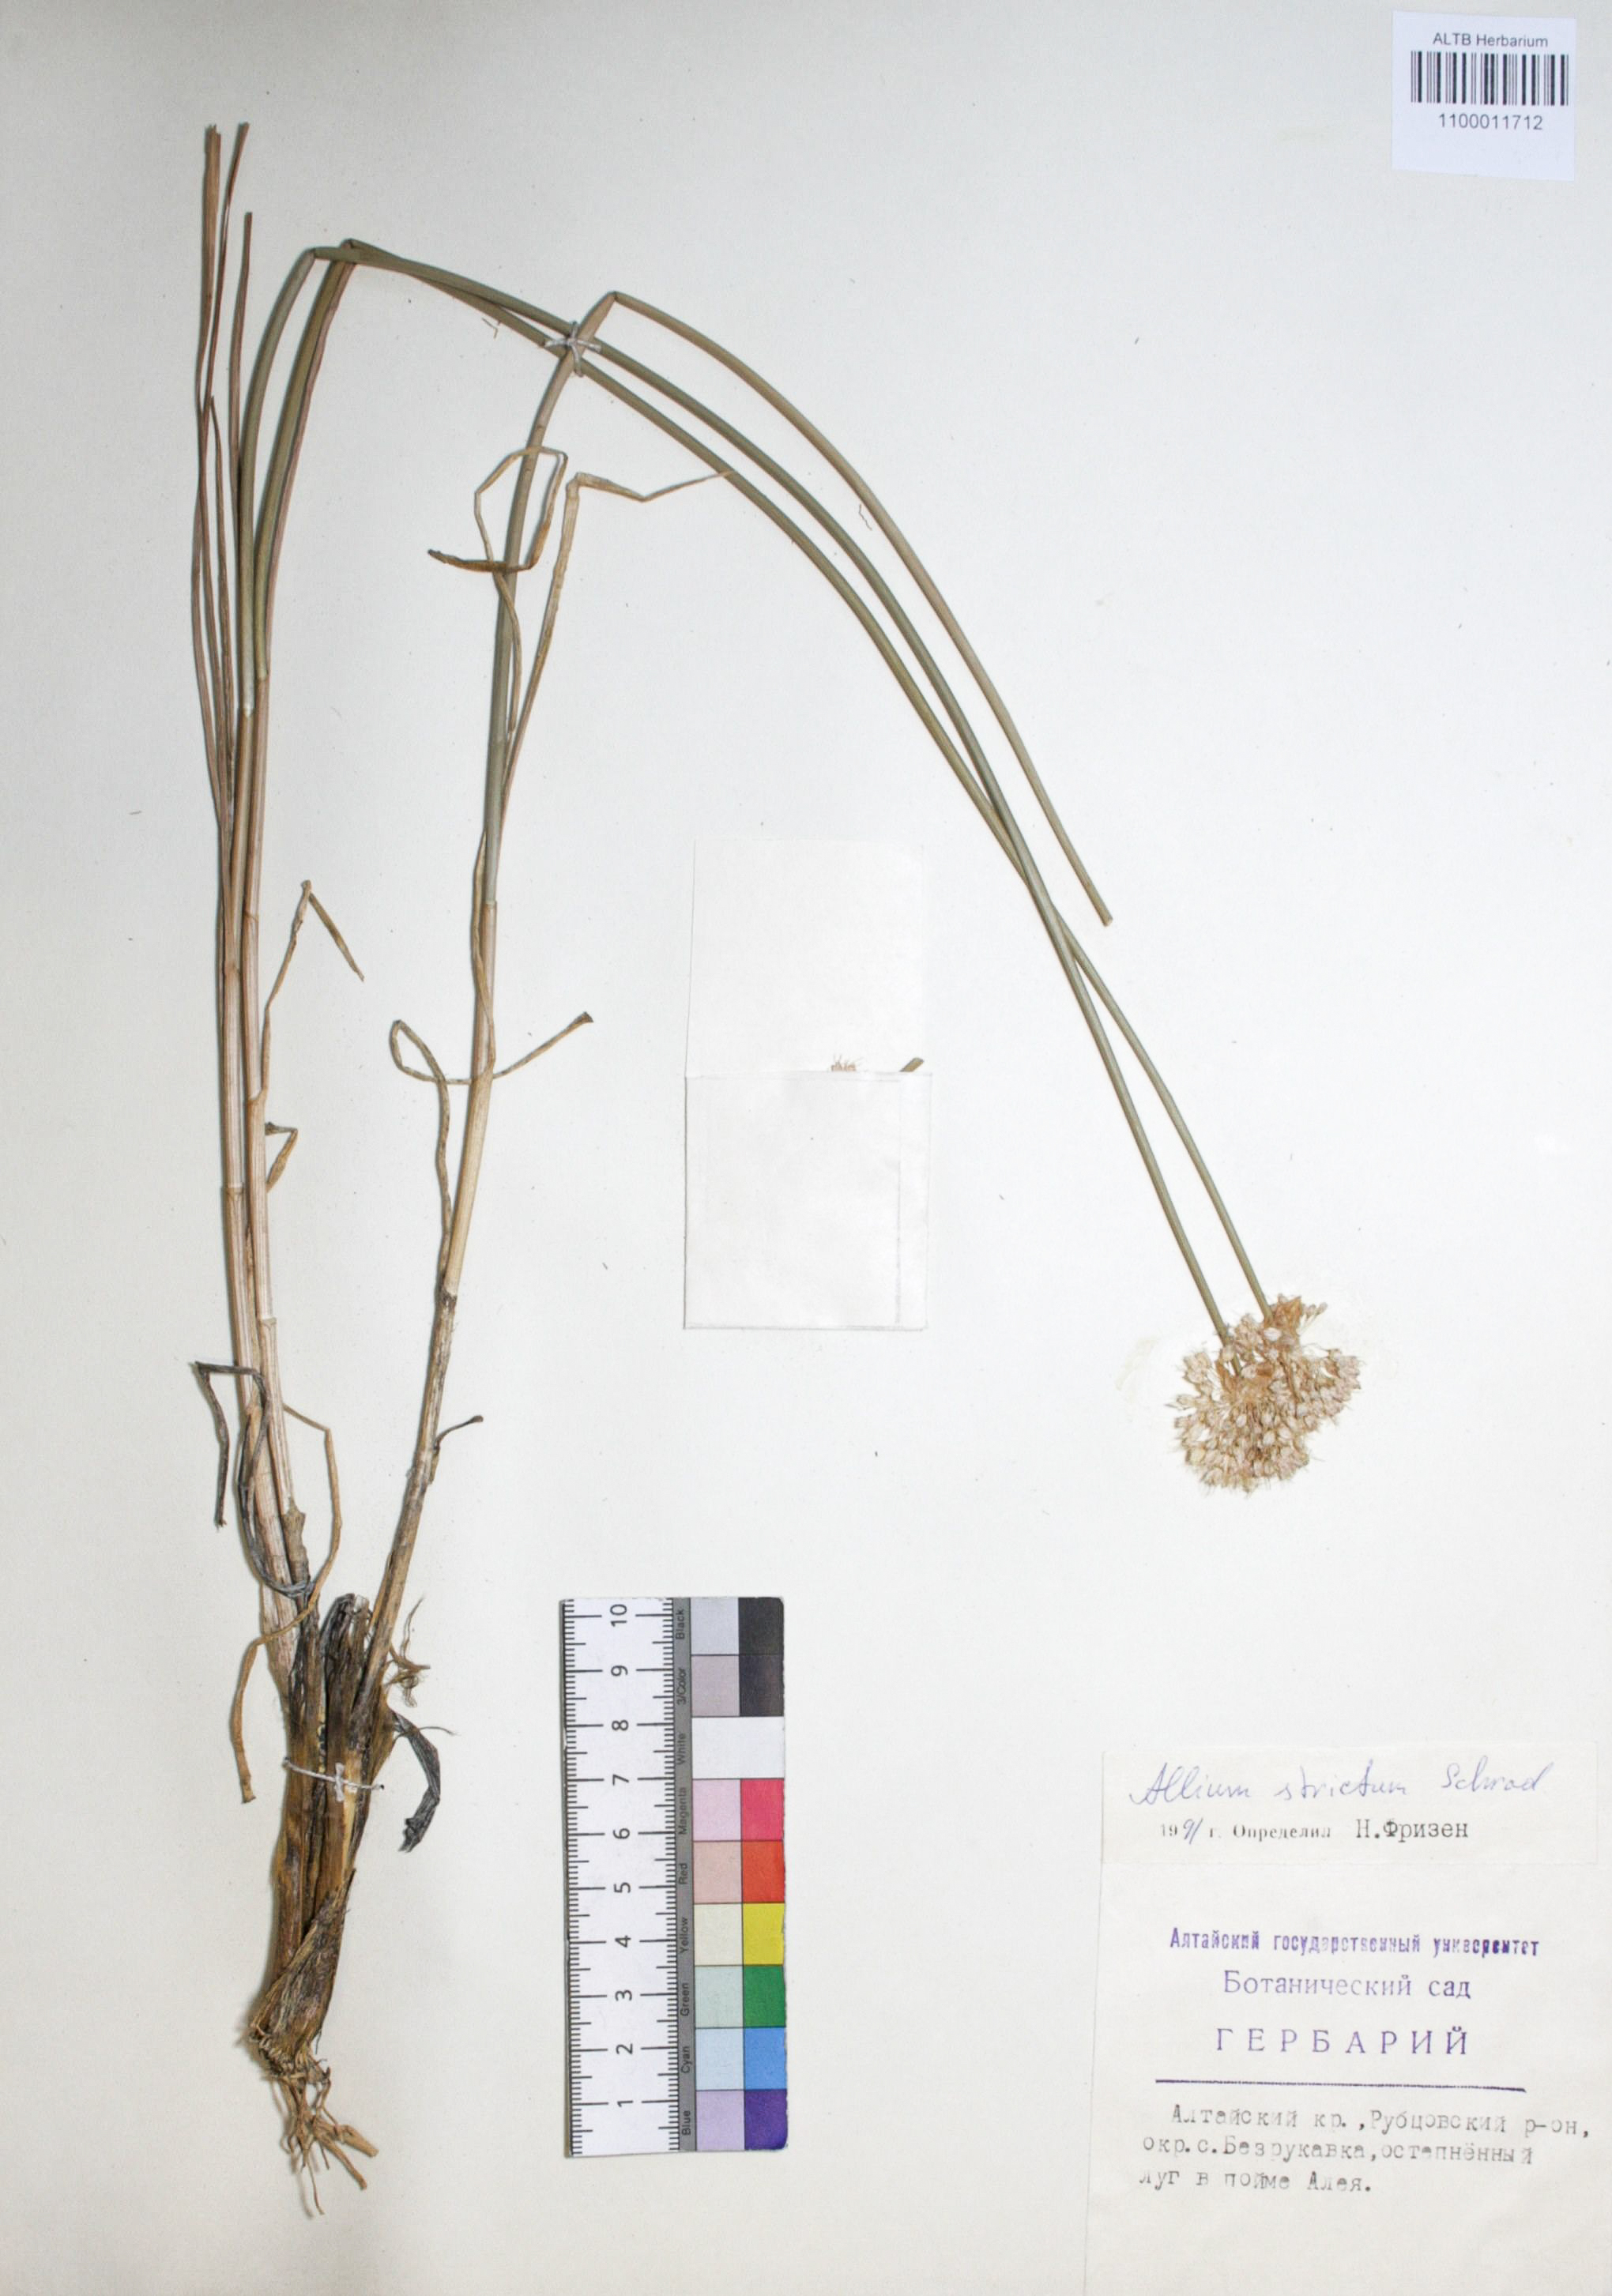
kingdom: Plantae
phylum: Tracheophyta
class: Liliopsida
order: Asparagales
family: Amaryllidaceae
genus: Allium
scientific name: Allium strictum
